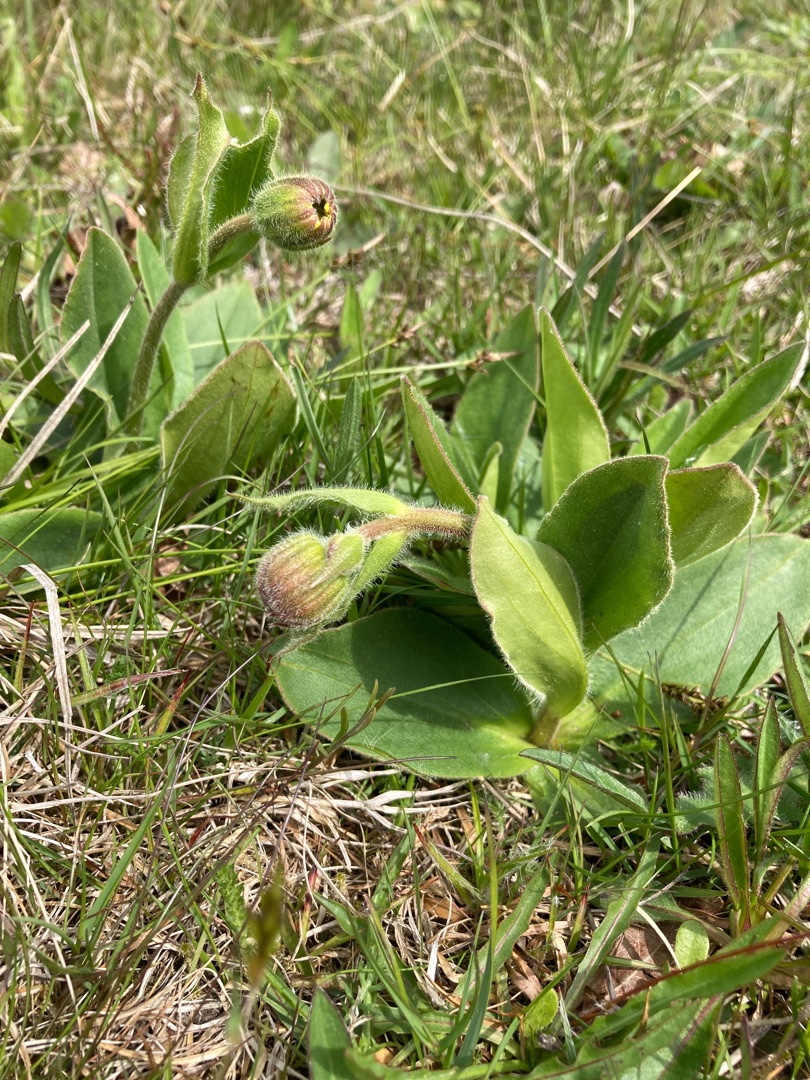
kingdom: Plantae
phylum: Tracheophyta
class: Magnoliopsida
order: Asterales
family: Asteraceae
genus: Arnica
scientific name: Arnica montana
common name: Guldblomme
